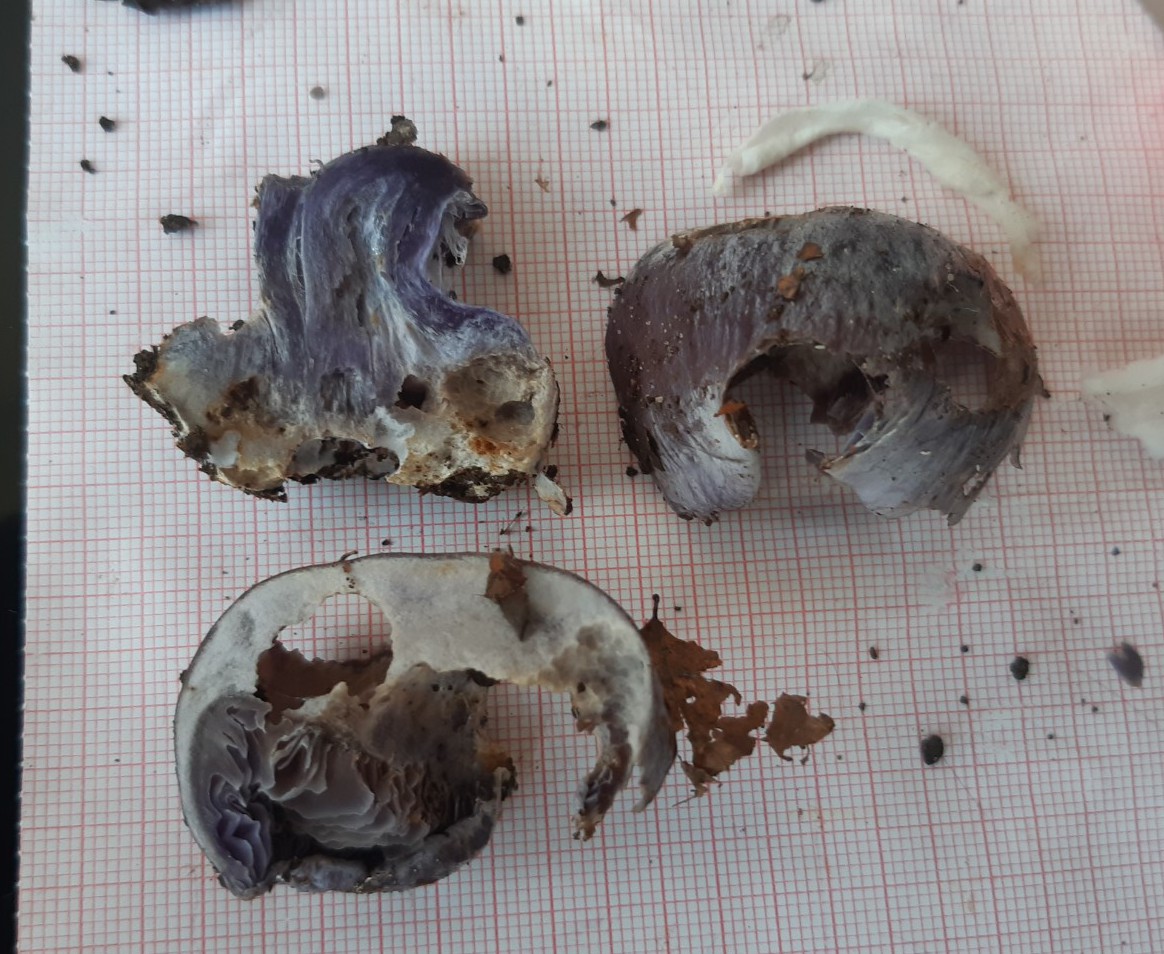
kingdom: Fungi
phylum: Basidiomycota
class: Agaricomycetes
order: Agaricales
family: Cortinariaceae
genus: Cortinarius
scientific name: Cortinarius caerulescens
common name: blåkødet slørhat
